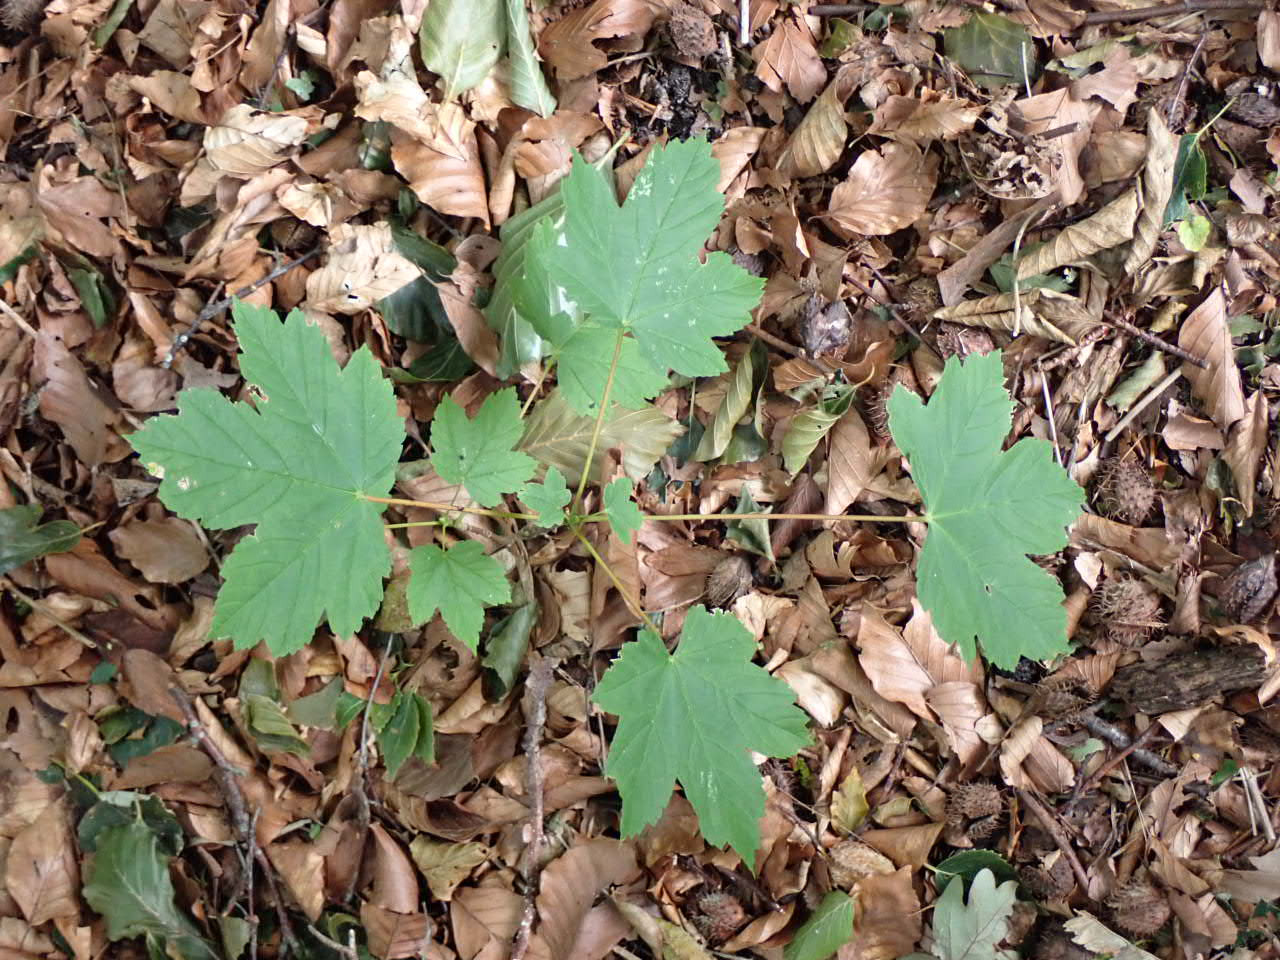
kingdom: Plantae
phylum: Tracheophyta
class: Magnoliopsida
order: Sapindales
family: Sapindaceae
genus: Acer
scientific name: Acer pseudoplatanus
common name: Ahorn
